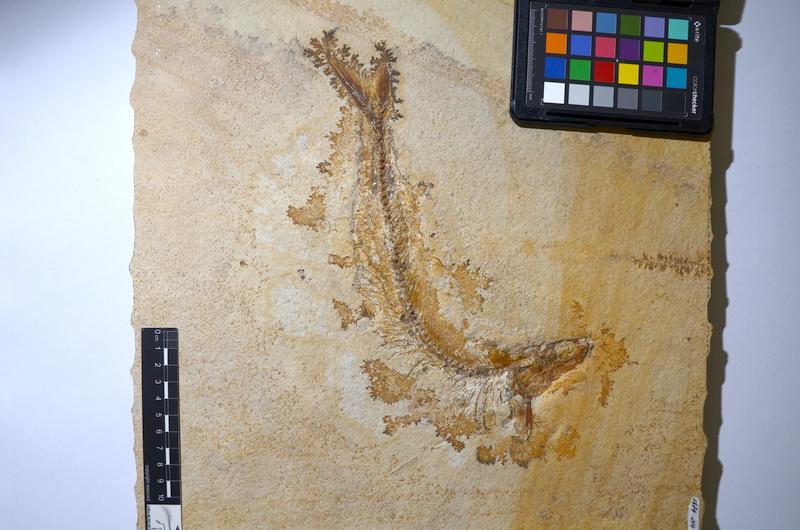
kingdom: Animalia
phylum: Chordata
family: Allothrissopidae
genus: Allothrissops
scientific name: Allothrissops mesogaster
